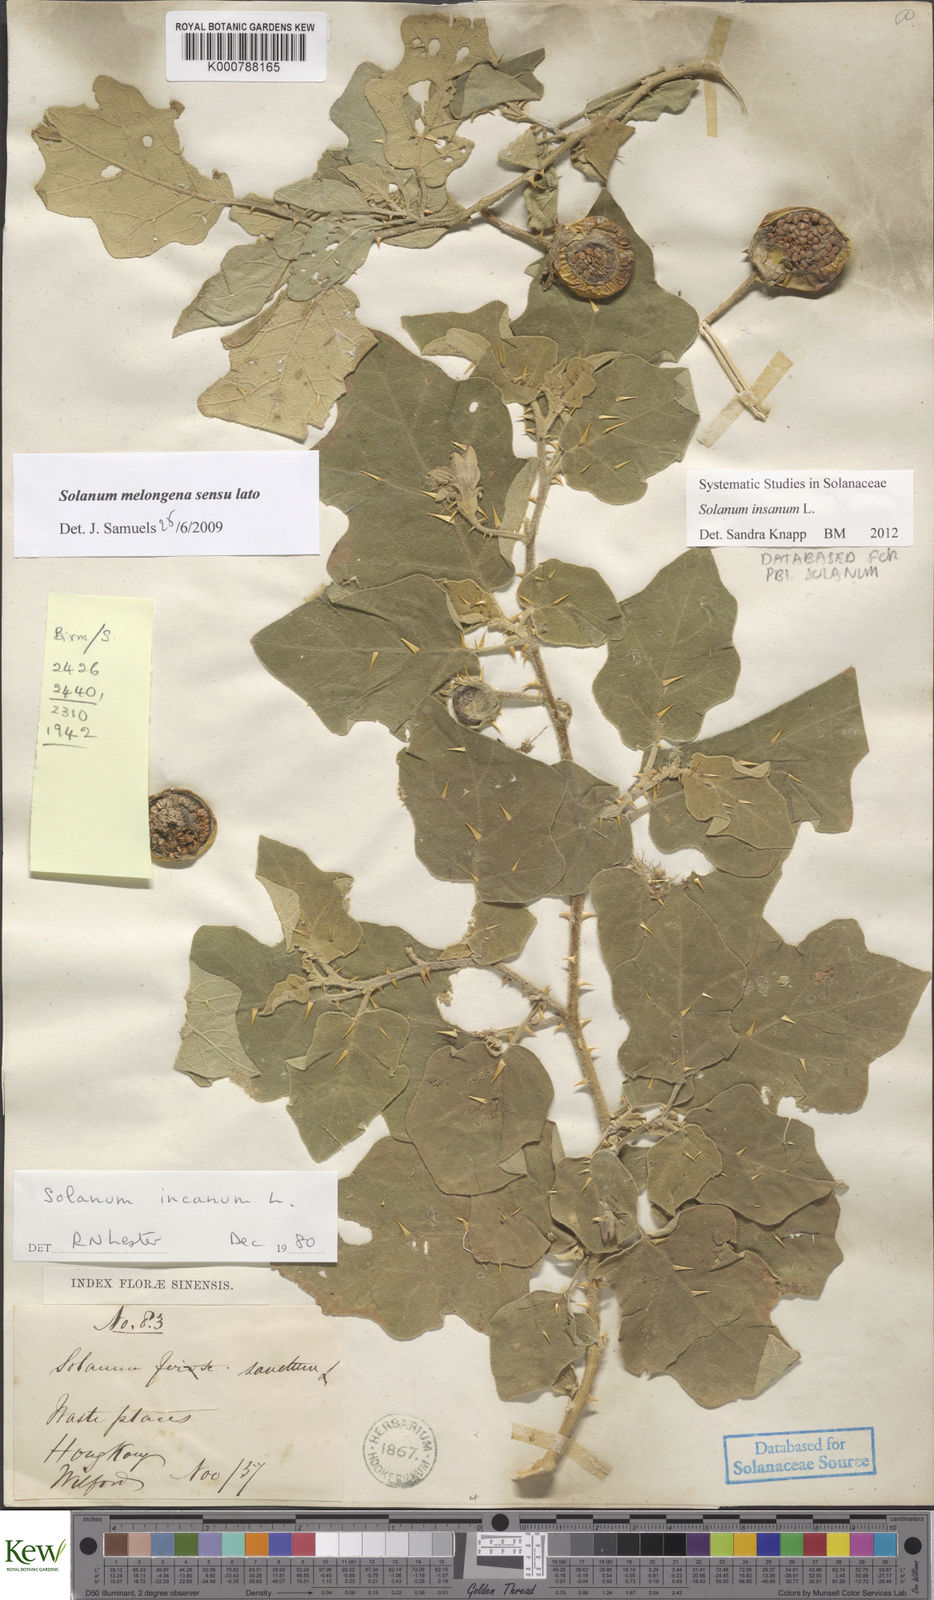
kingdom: Plantae
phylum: Tracheophyta
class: Magnoliopsida
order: Solanales
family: Solanaceae
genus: Solanum
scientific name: Solanum insanum
